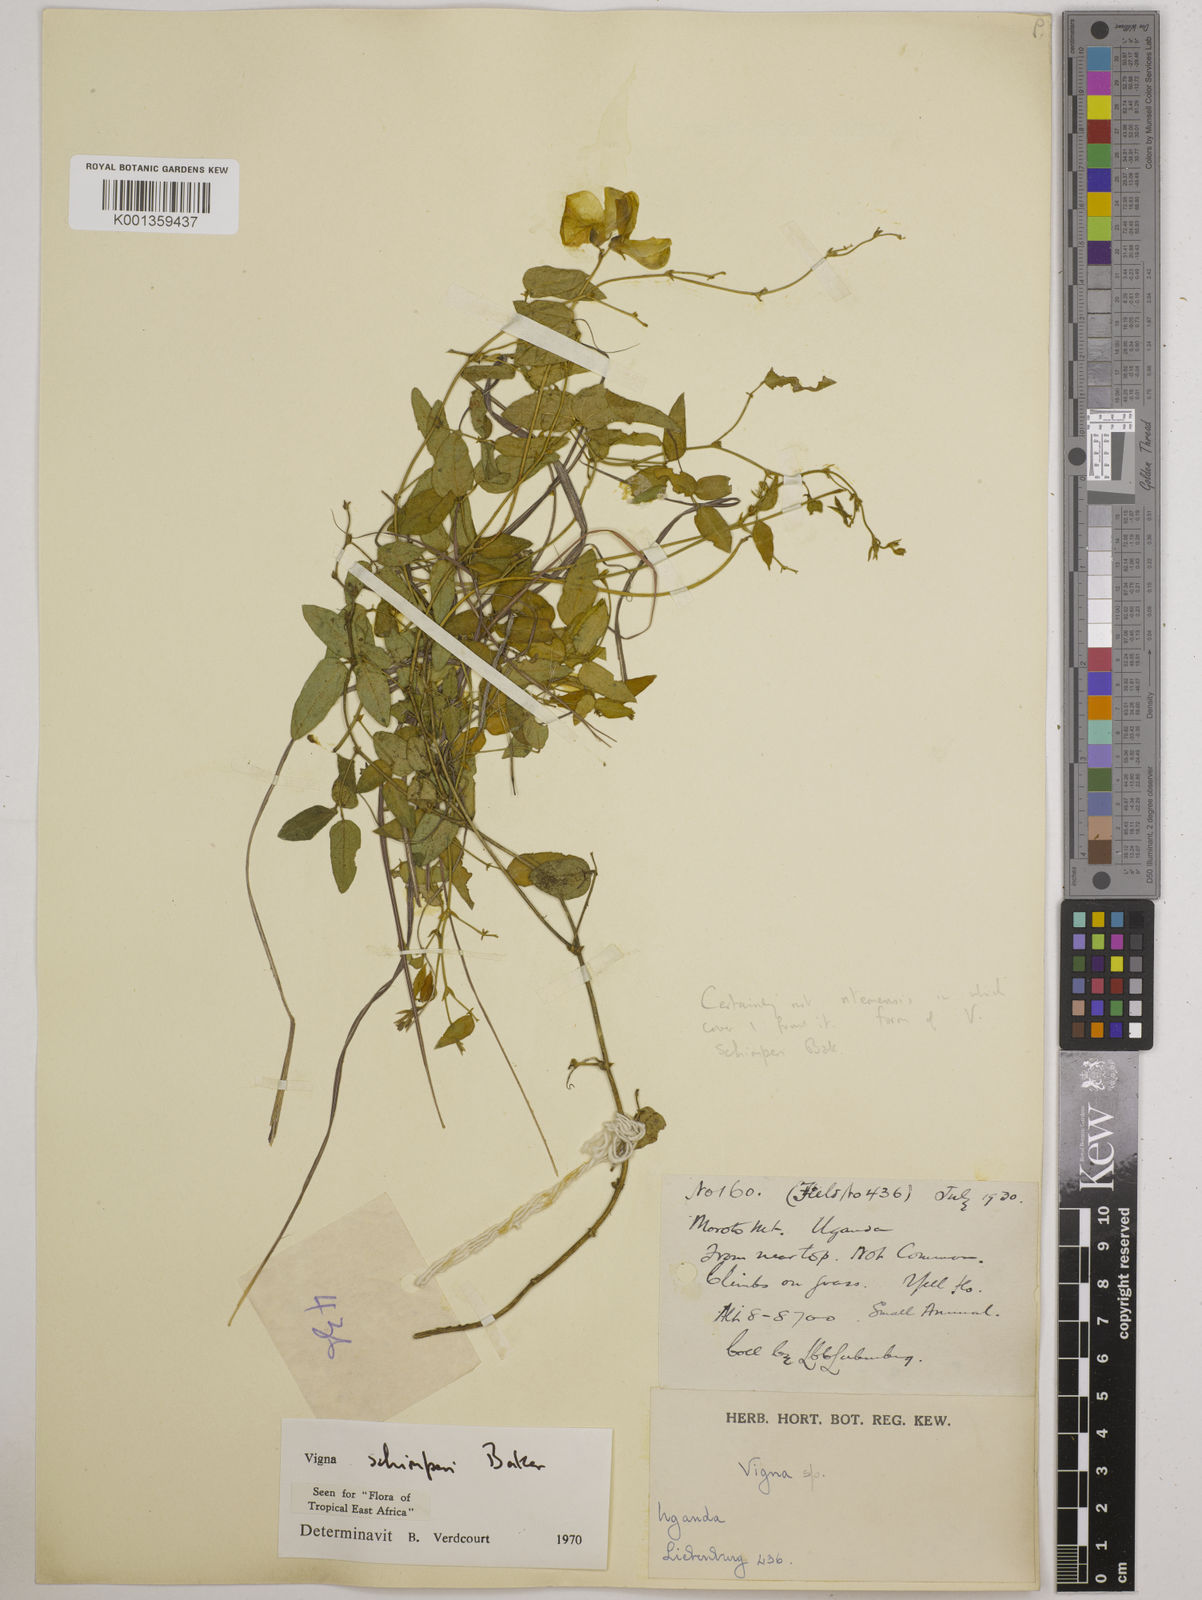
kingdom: Plantae
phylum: Tracheophyta
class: Magnoliopsida
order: Fabales
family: Fabaceae
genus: Vigna
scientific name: Vigna schimperi
